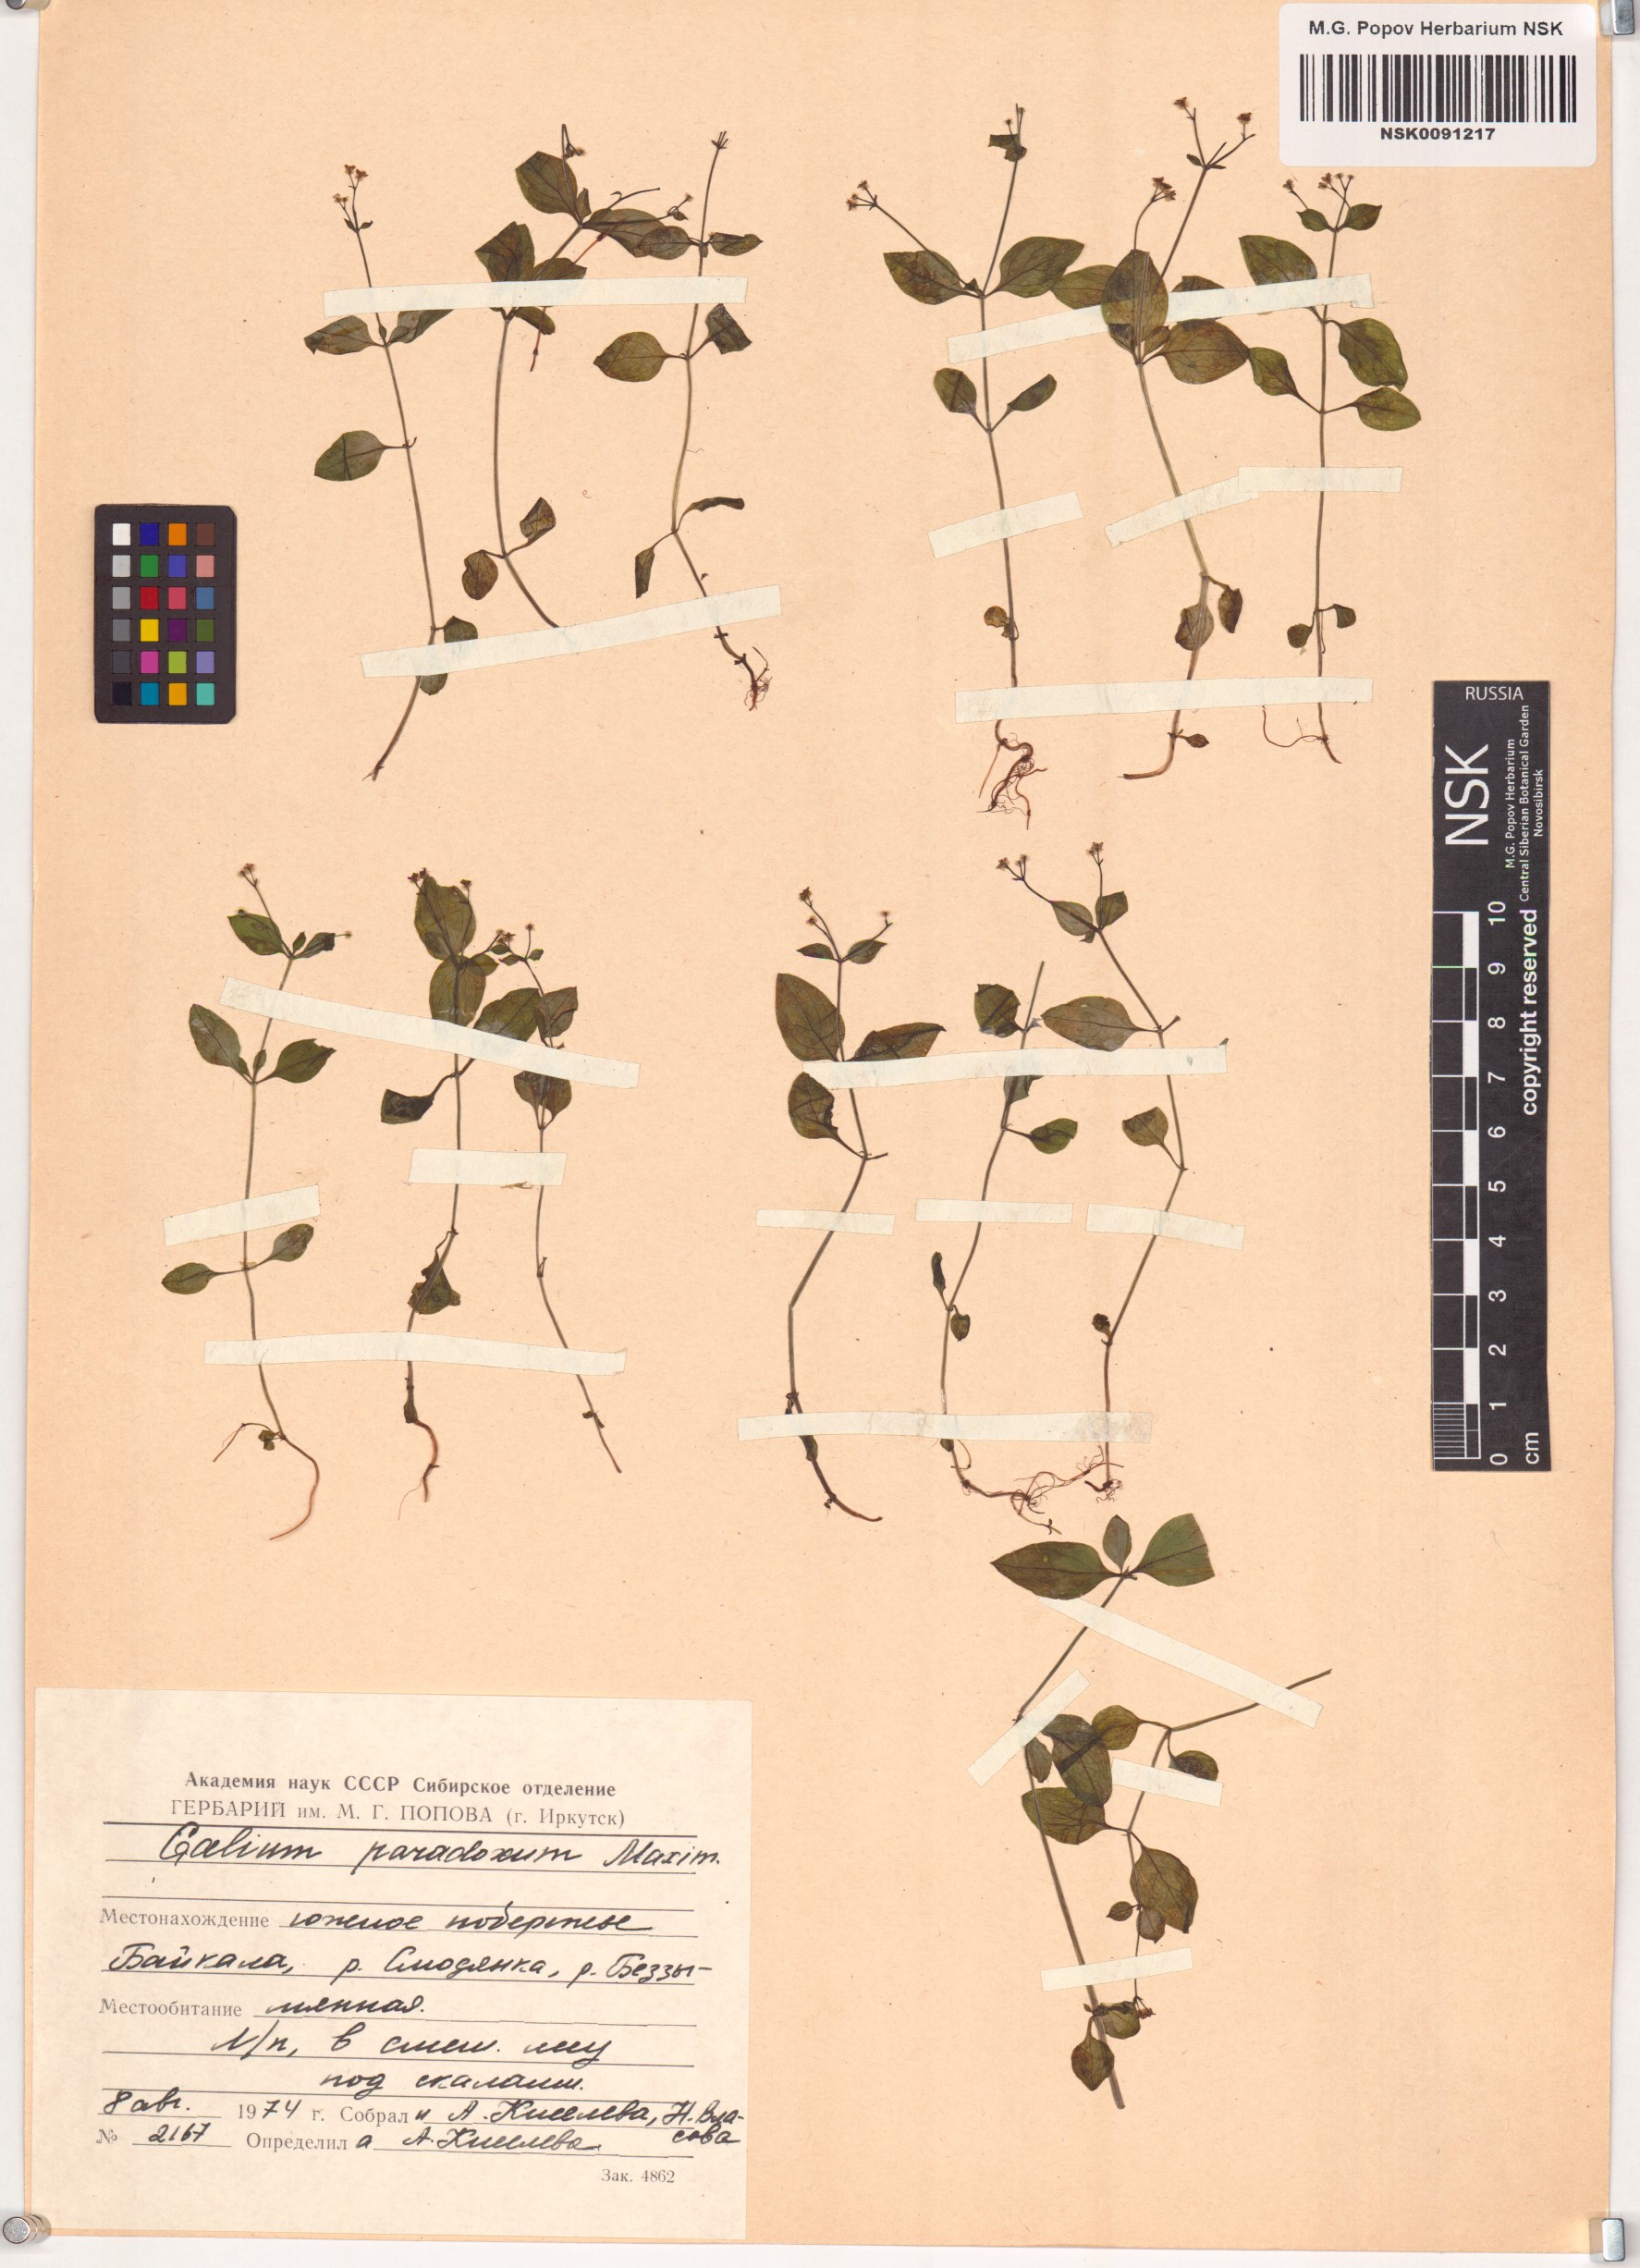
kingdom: Plantae
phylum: Tracheophyta
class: Magnoliopsida
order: Gentianales
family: Rubiaceae
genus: Pseudogalium
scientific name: Pseudogalium paradoxum
